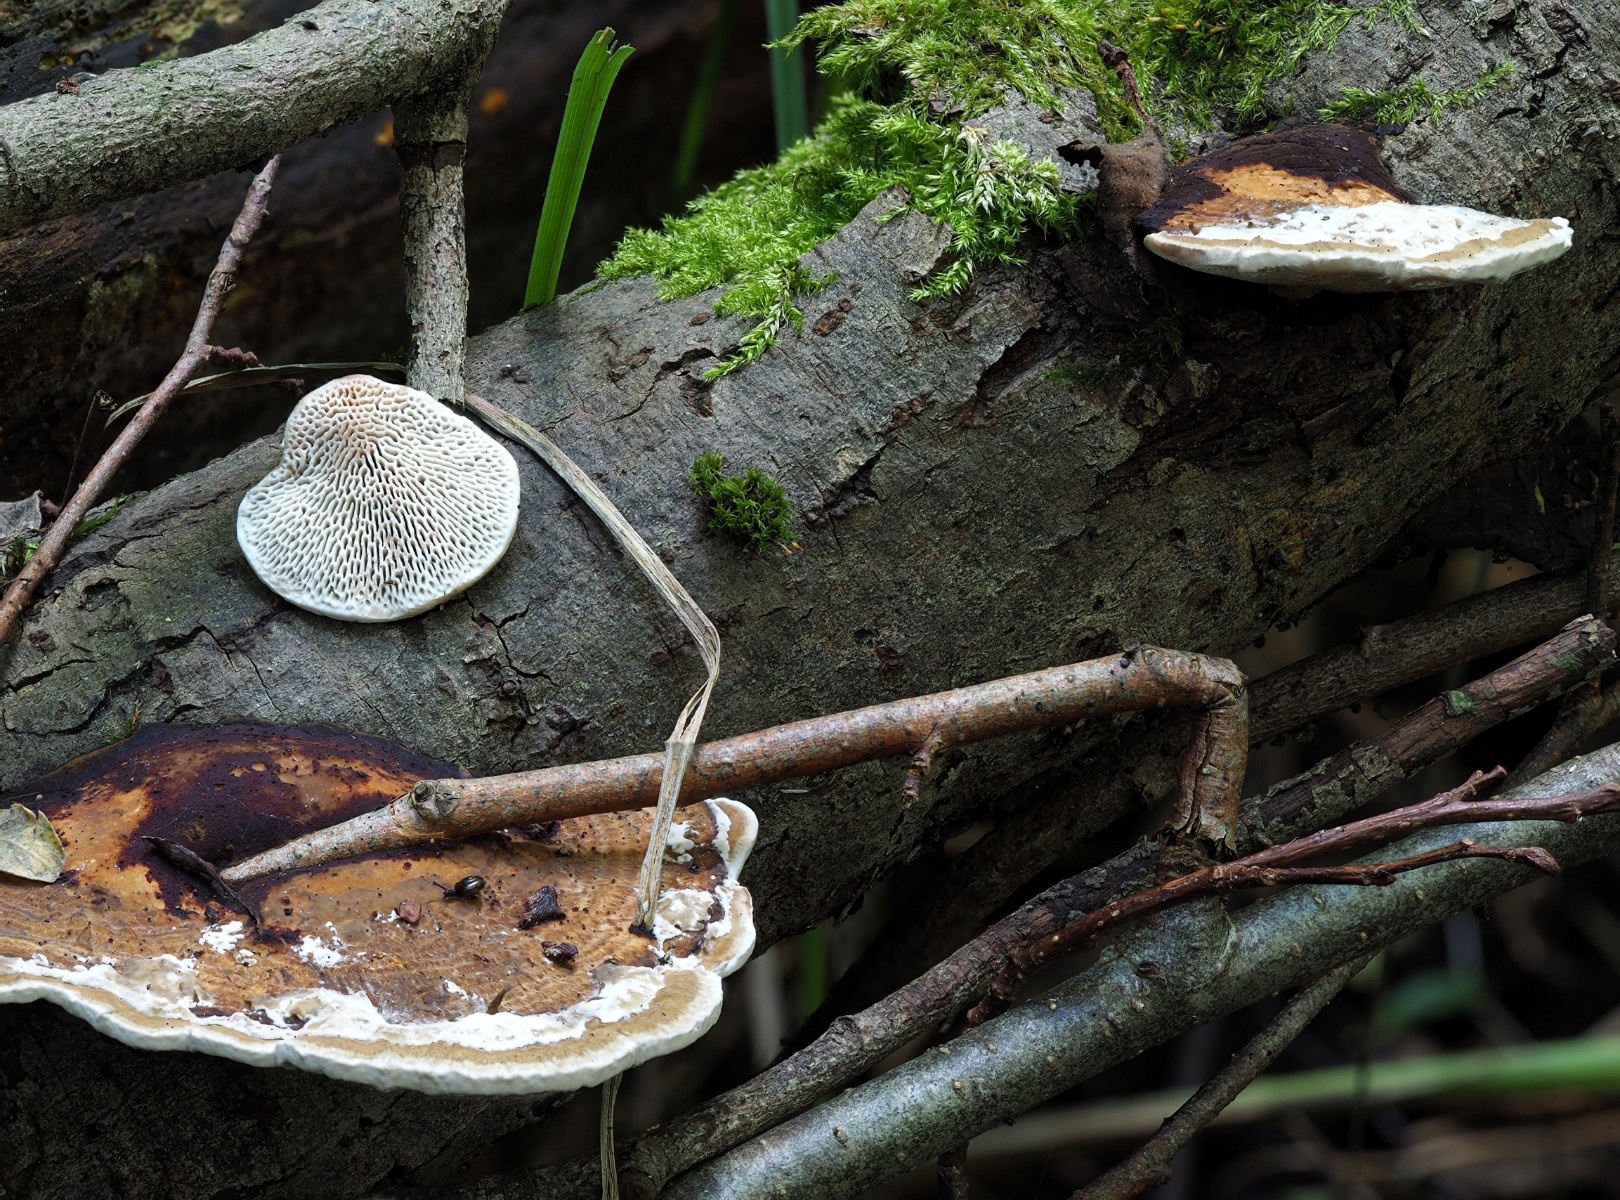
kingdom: Fungi
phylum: Basidiomycota
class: Agaricomycetes
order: Polyporales
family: Polyporaceae
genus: Daedaleopsis
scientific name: Daedaleopsis confragosa
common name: rødmende læderporesvamp
